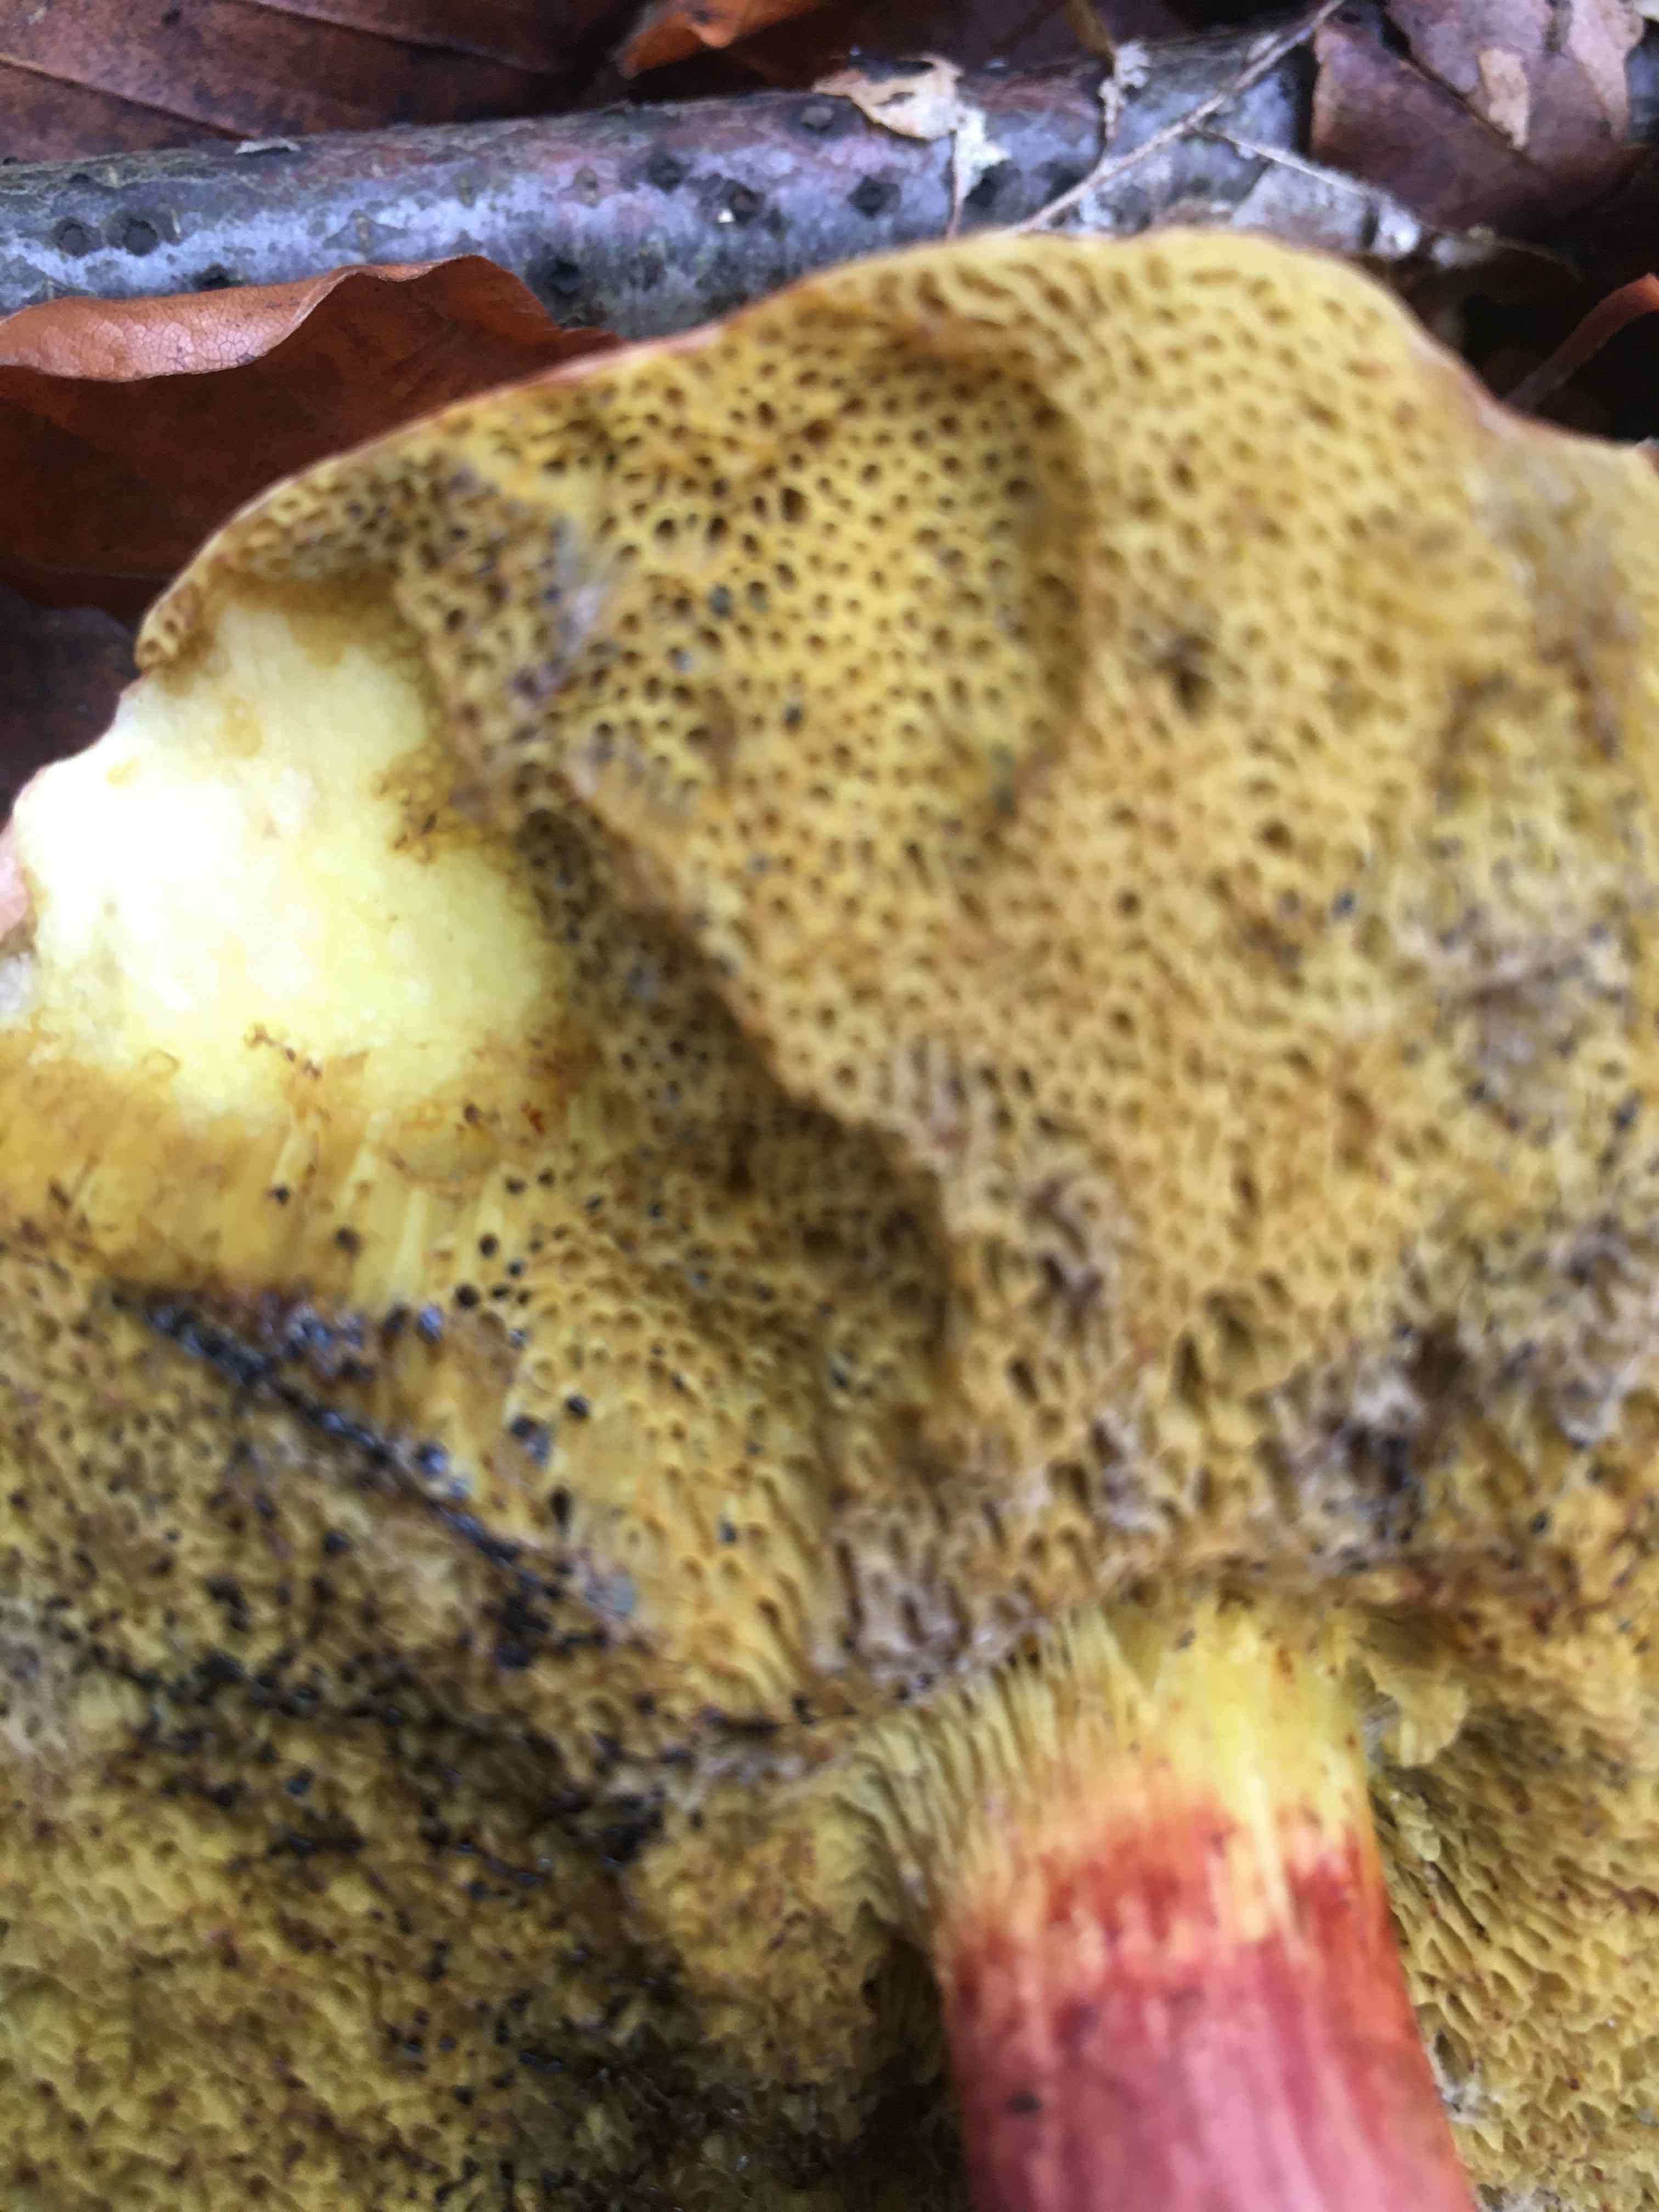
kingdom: Fungi
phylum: Basidiomycota
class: Agaricomycetes
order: Boletales
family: Boletaceae
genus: Xerocomellus
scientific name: Xerocomellus pruinatus
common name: dugget rørhat
